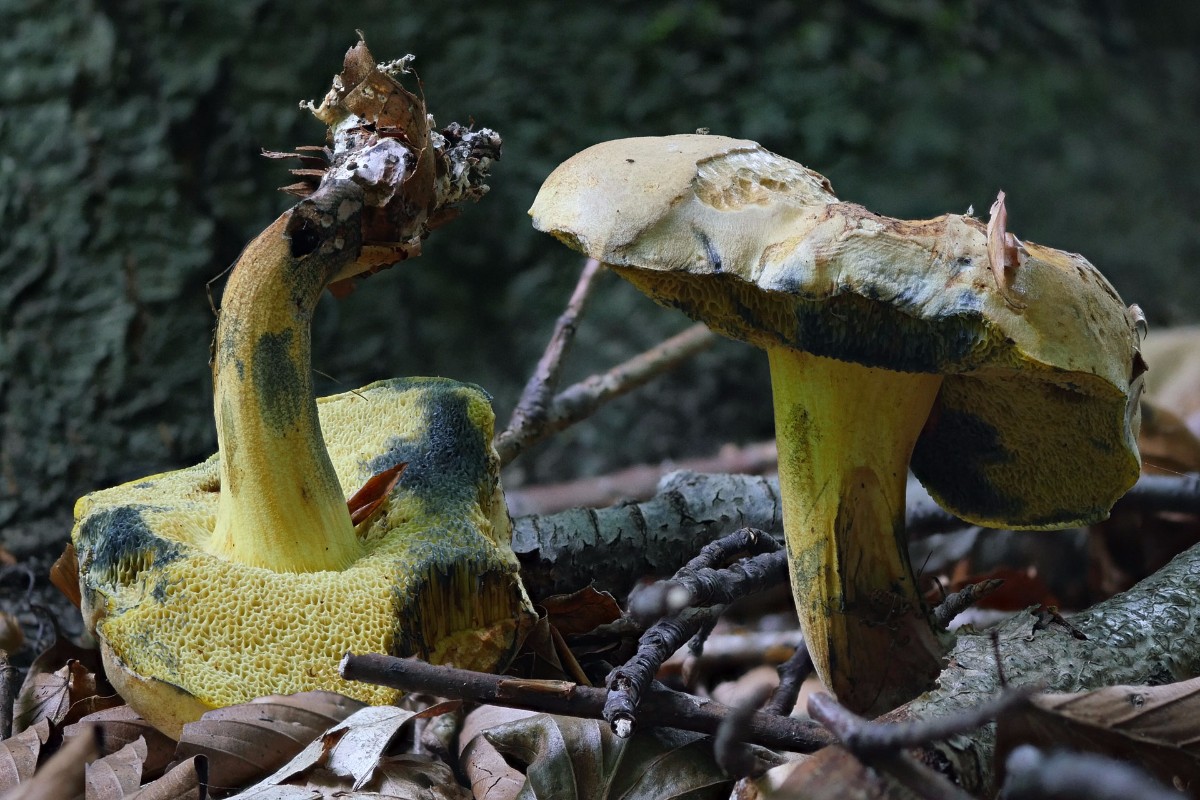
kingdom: Fungi
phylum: Basidiomycota
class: Agaricomycetes
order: Boletales
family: Boletaceae
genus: Cyanoboletus
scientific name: Cyanoboletus pulverulentus
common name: sortblånende rørhat
